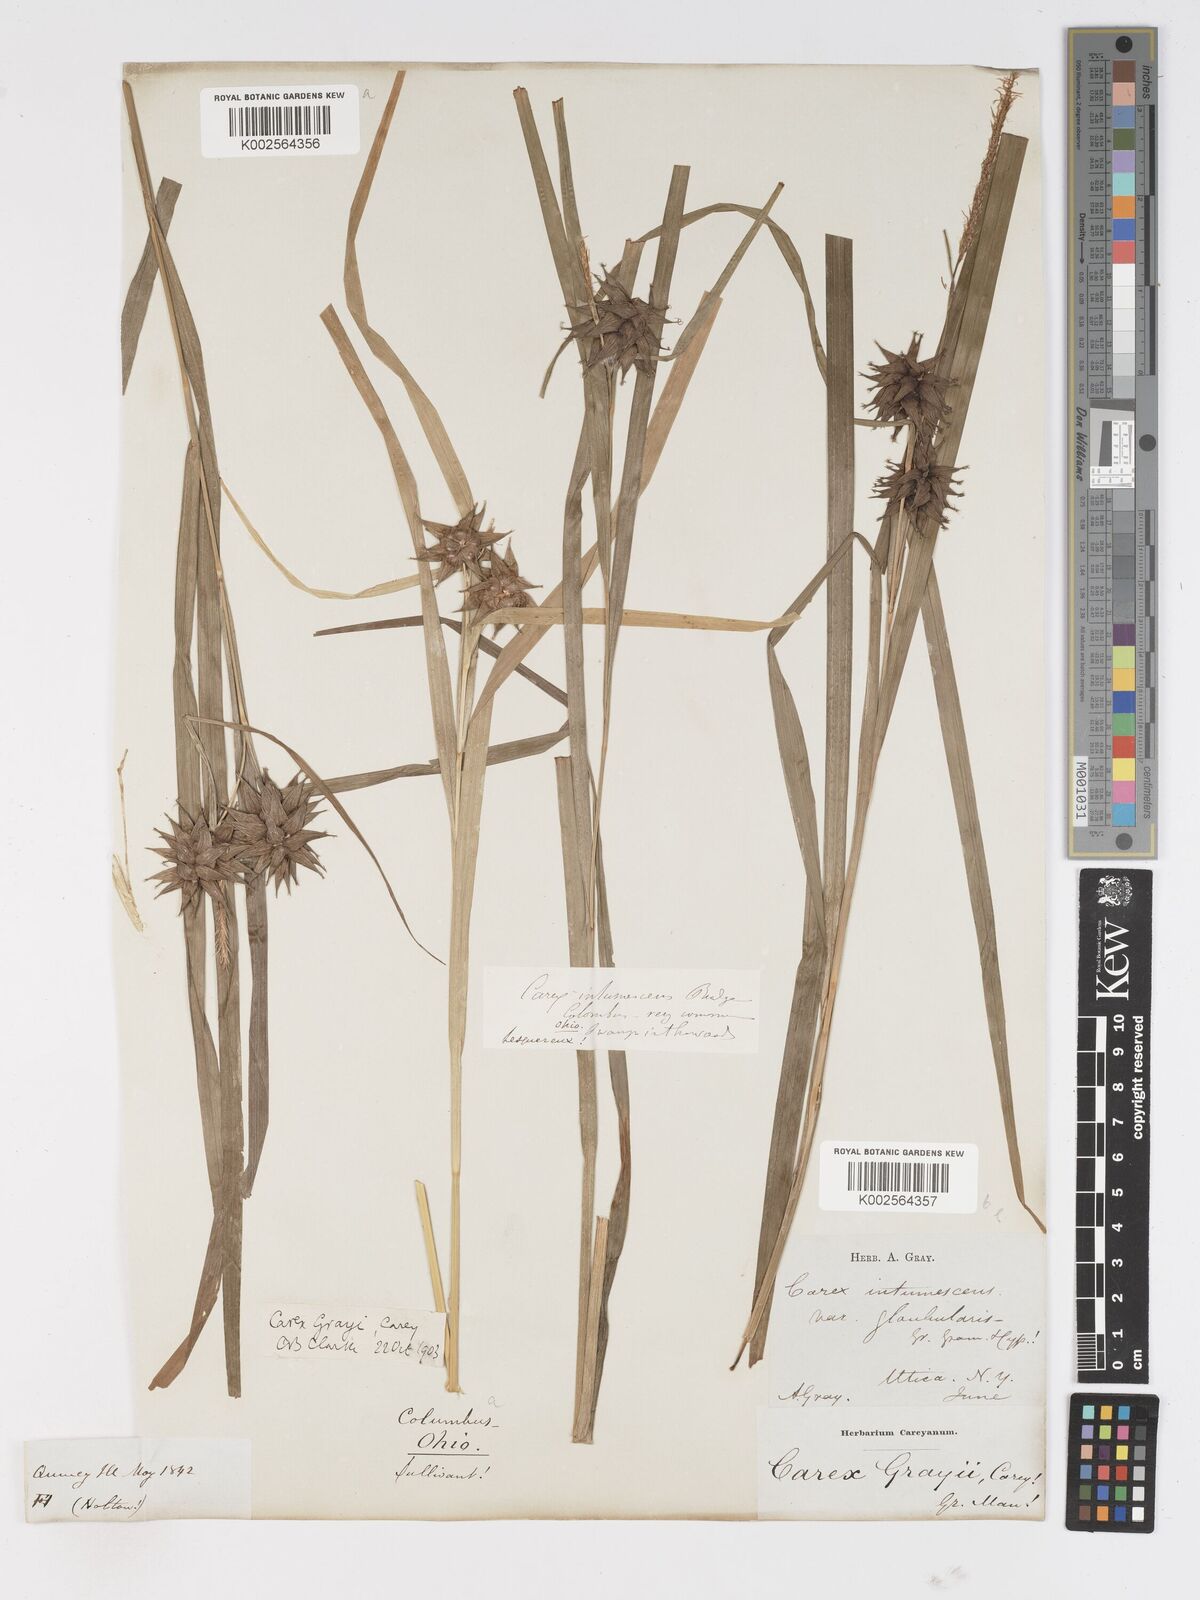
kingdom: Plantae
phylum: Tracheophyta
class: Liliopsida
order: Poales
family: Cyperaceae
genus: Carex
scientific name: Carex grayi
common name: Asa gray's sedge
